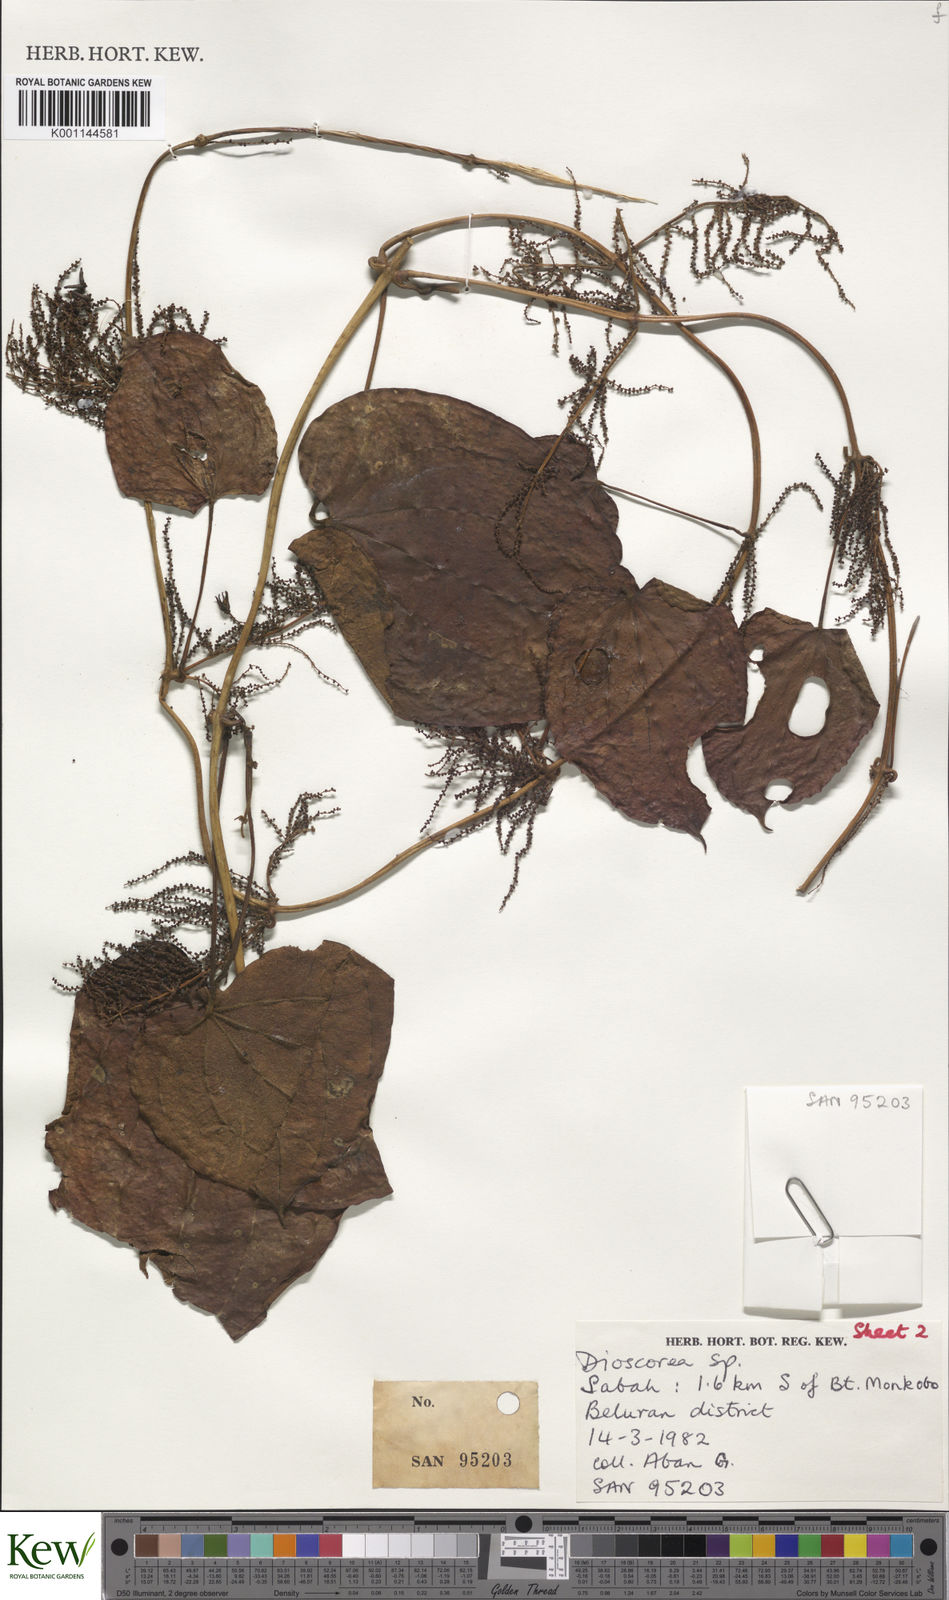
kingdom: Plantae
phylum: Tracheophyta
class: Liliopsida
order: Dioscoreales
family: Dioscoreaceae
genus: Dioscorea
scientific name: Dioscorea pyrifolia
